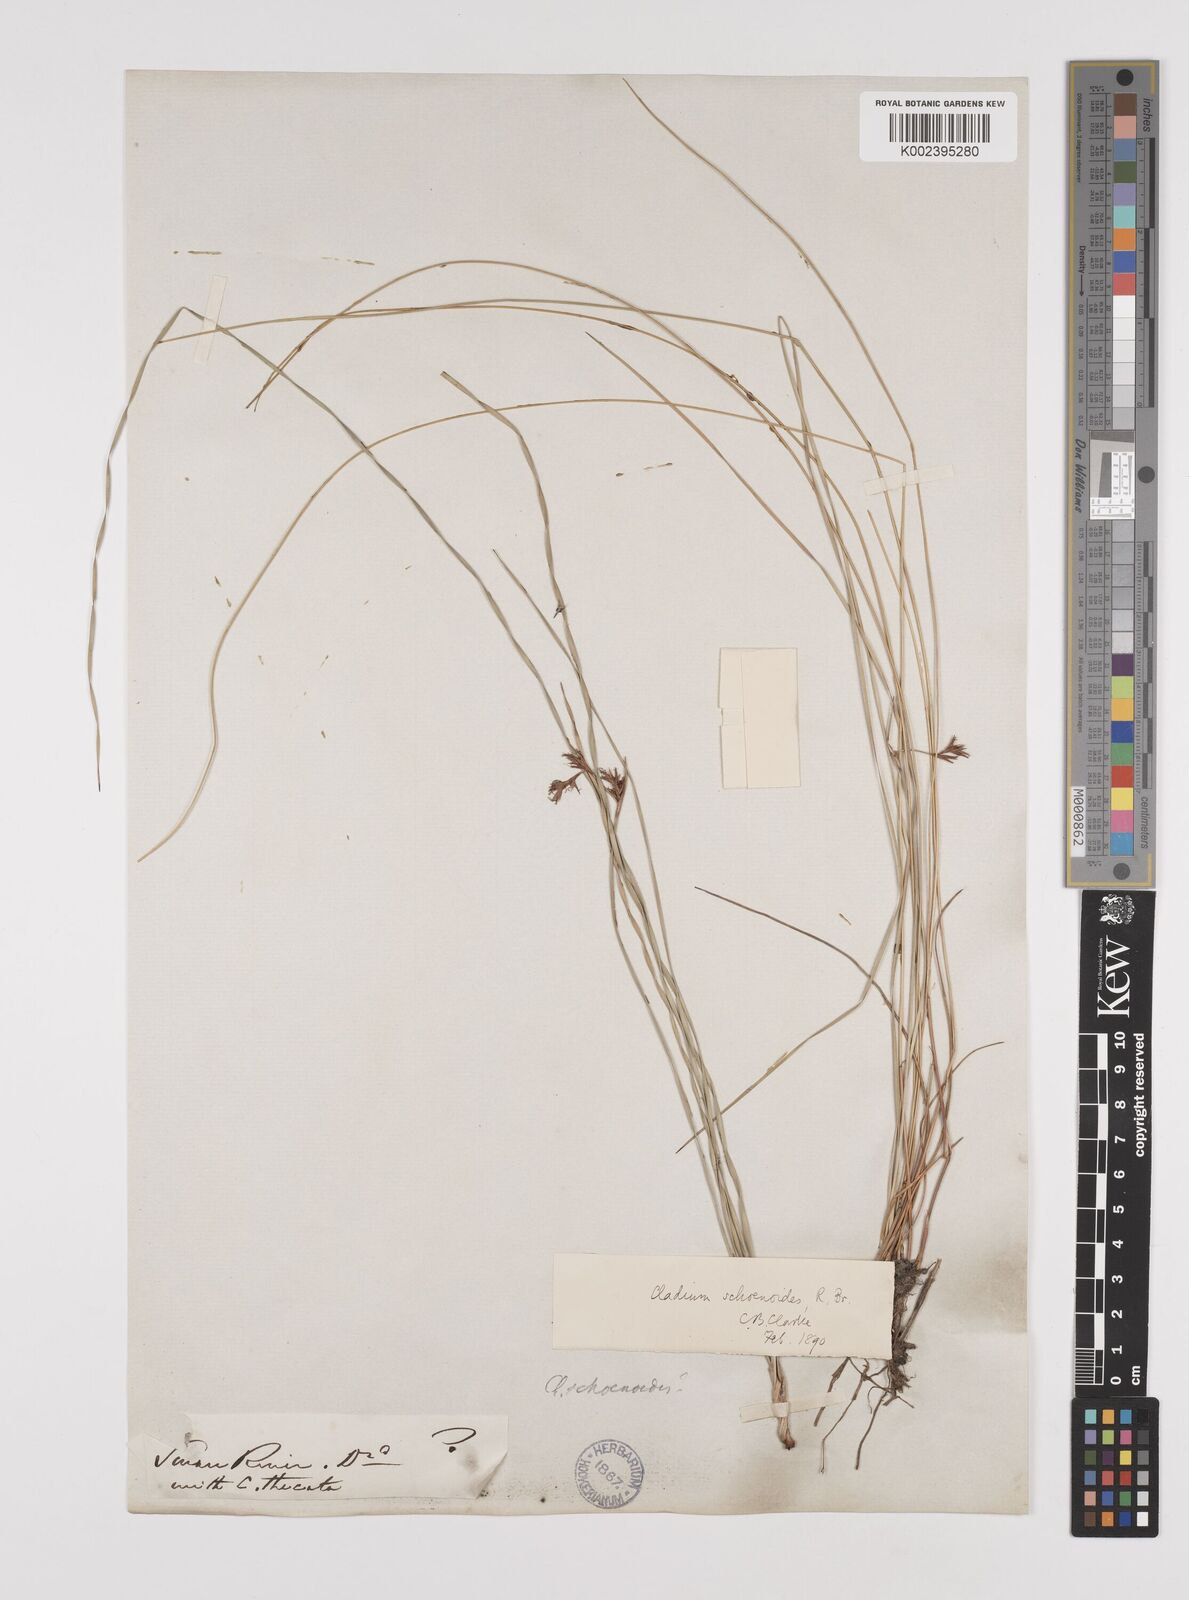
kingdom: Plantae
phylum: Tracheophyta
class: Liliopsida
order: Poales
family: Cyperaceae
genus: Machaerina
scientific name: Machaerina acuta
